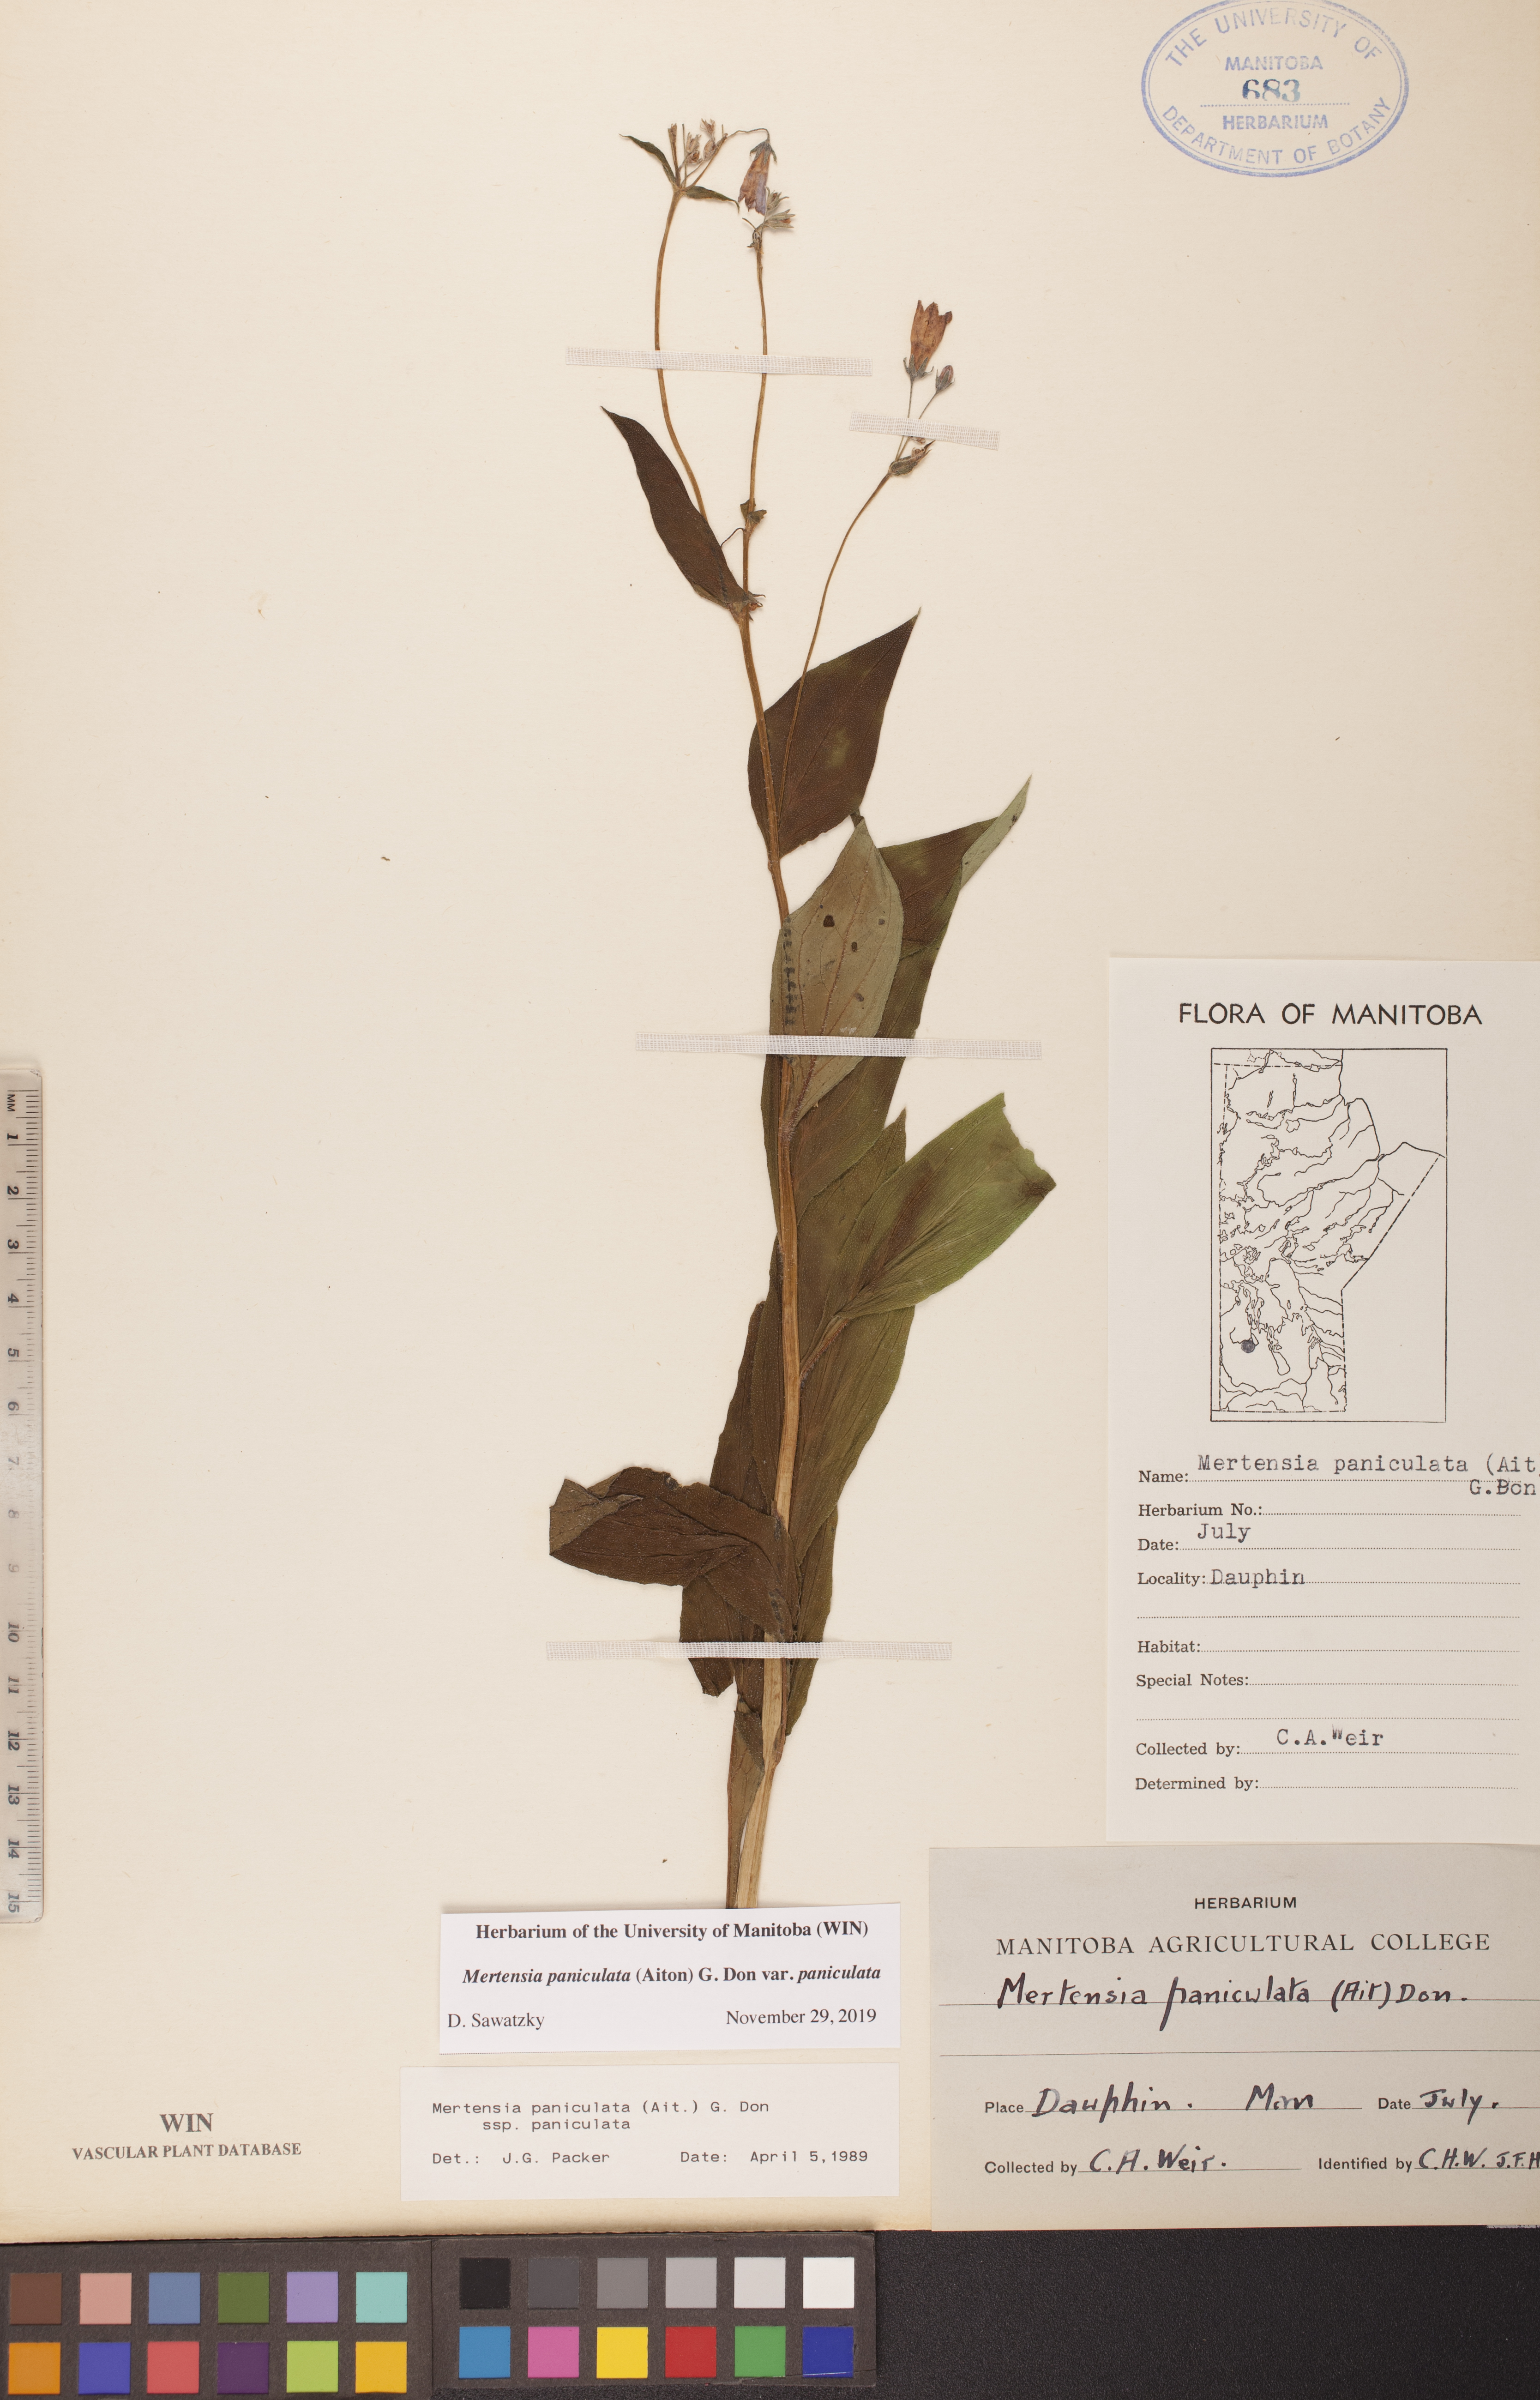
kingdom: Plantae
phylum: Tracheophyta
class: Magnoliopsida
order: Boraginales
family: Boraginaceae
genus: Mertensia
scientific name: Mertensia paniculata
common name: Panicled bluebells
